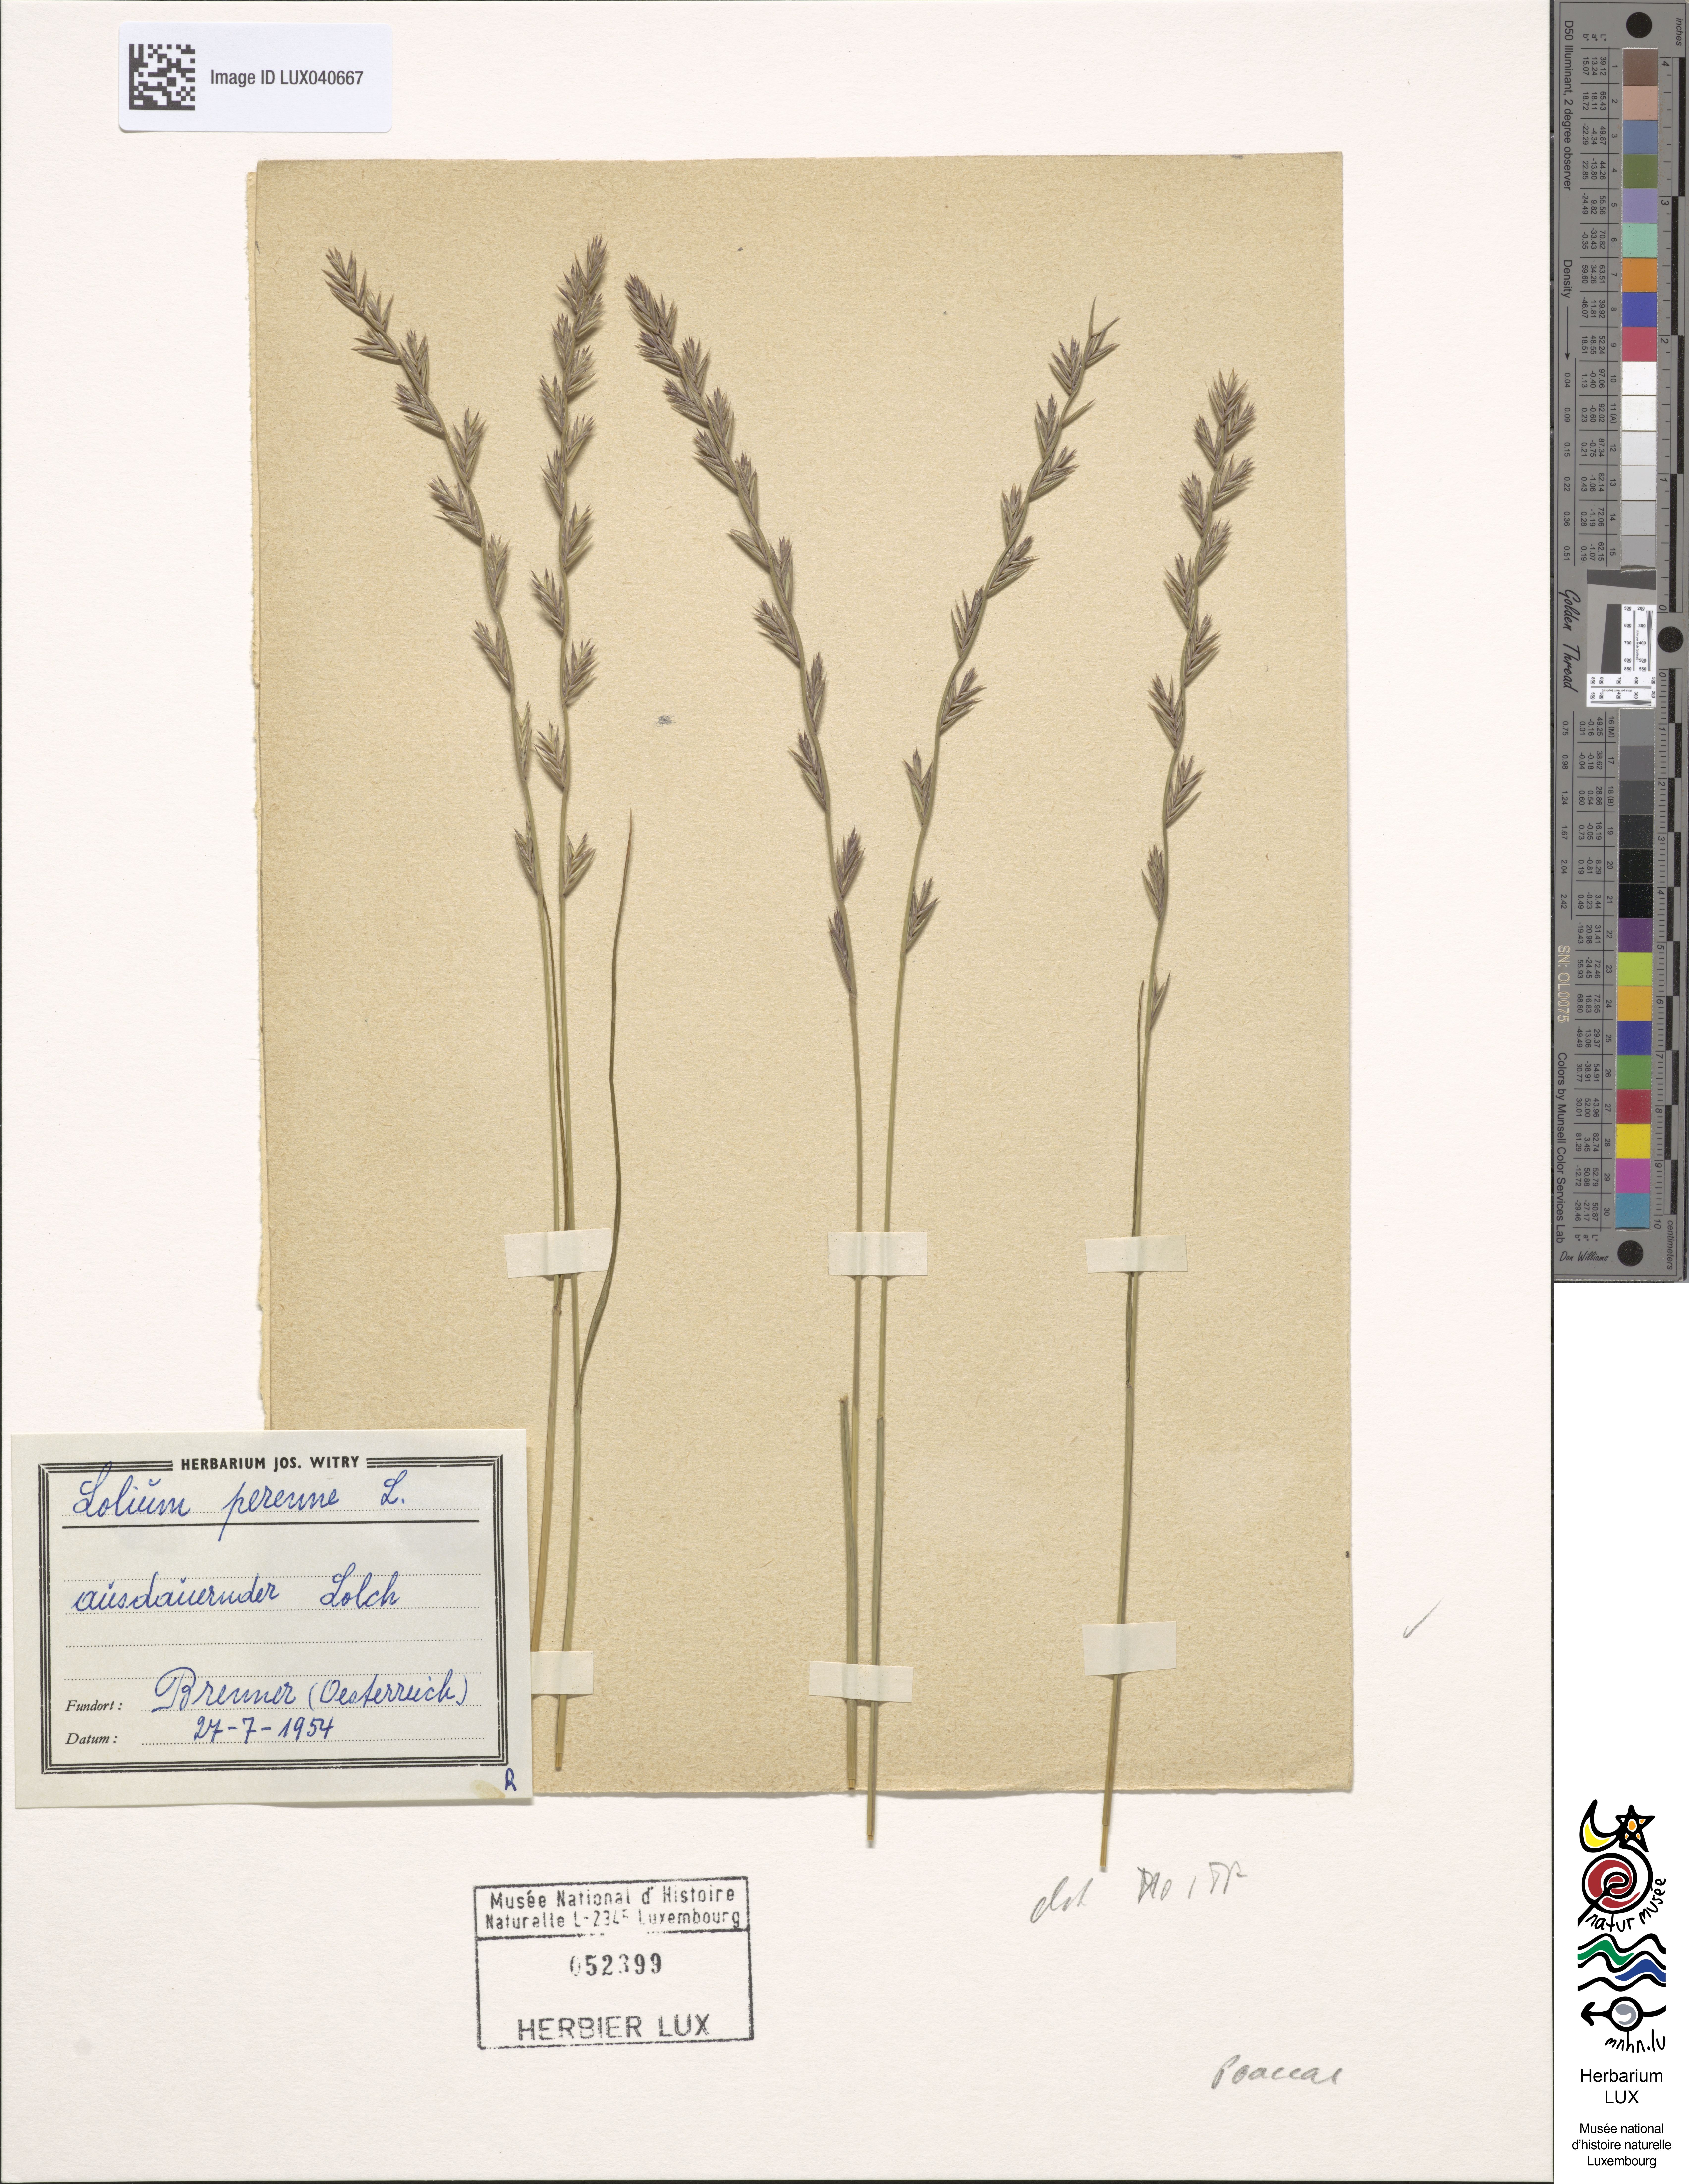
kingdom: Plantae
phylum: Tracheophyta
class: Liliopsida
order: Poales
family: Poaceae
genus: Lolium
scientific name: Lolium perenne
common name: Perennial ryegrass
